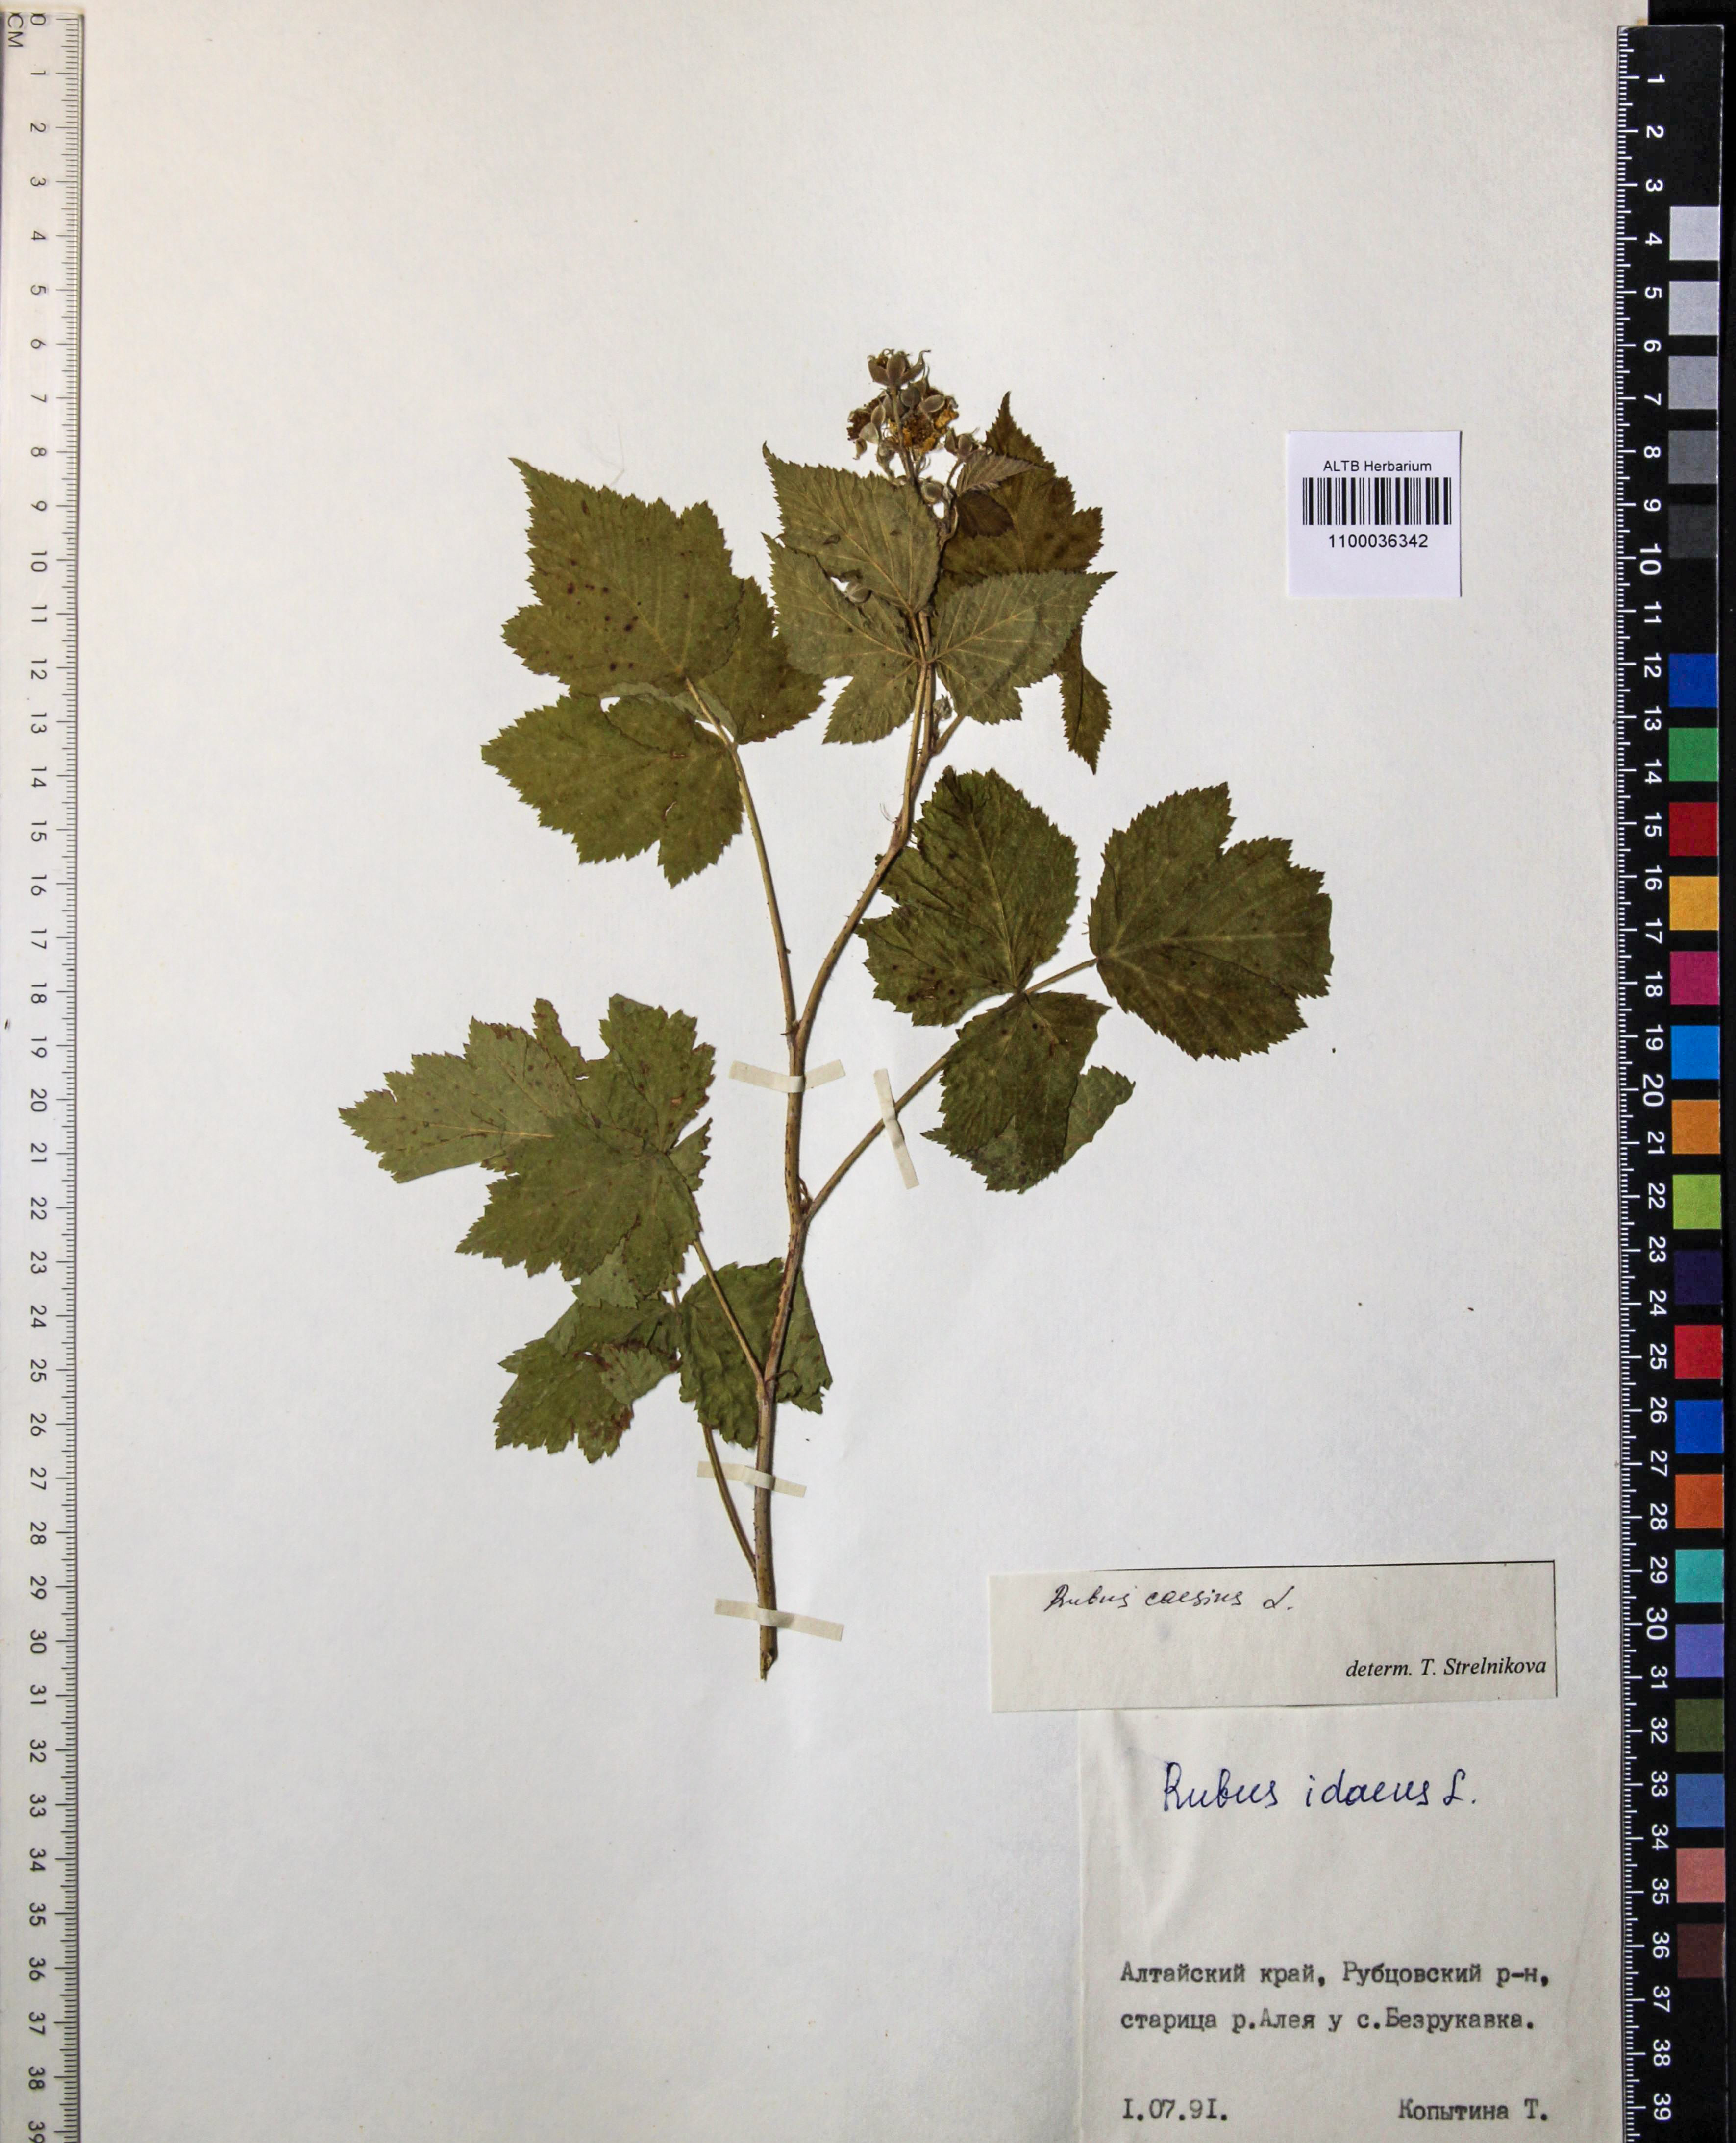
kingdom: Plantae
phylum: Tracheophyta
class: Magnoliopsida
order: Rosales
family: Rosaceae
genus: Rubus
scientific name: Rubus caesius
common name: Dewberry
